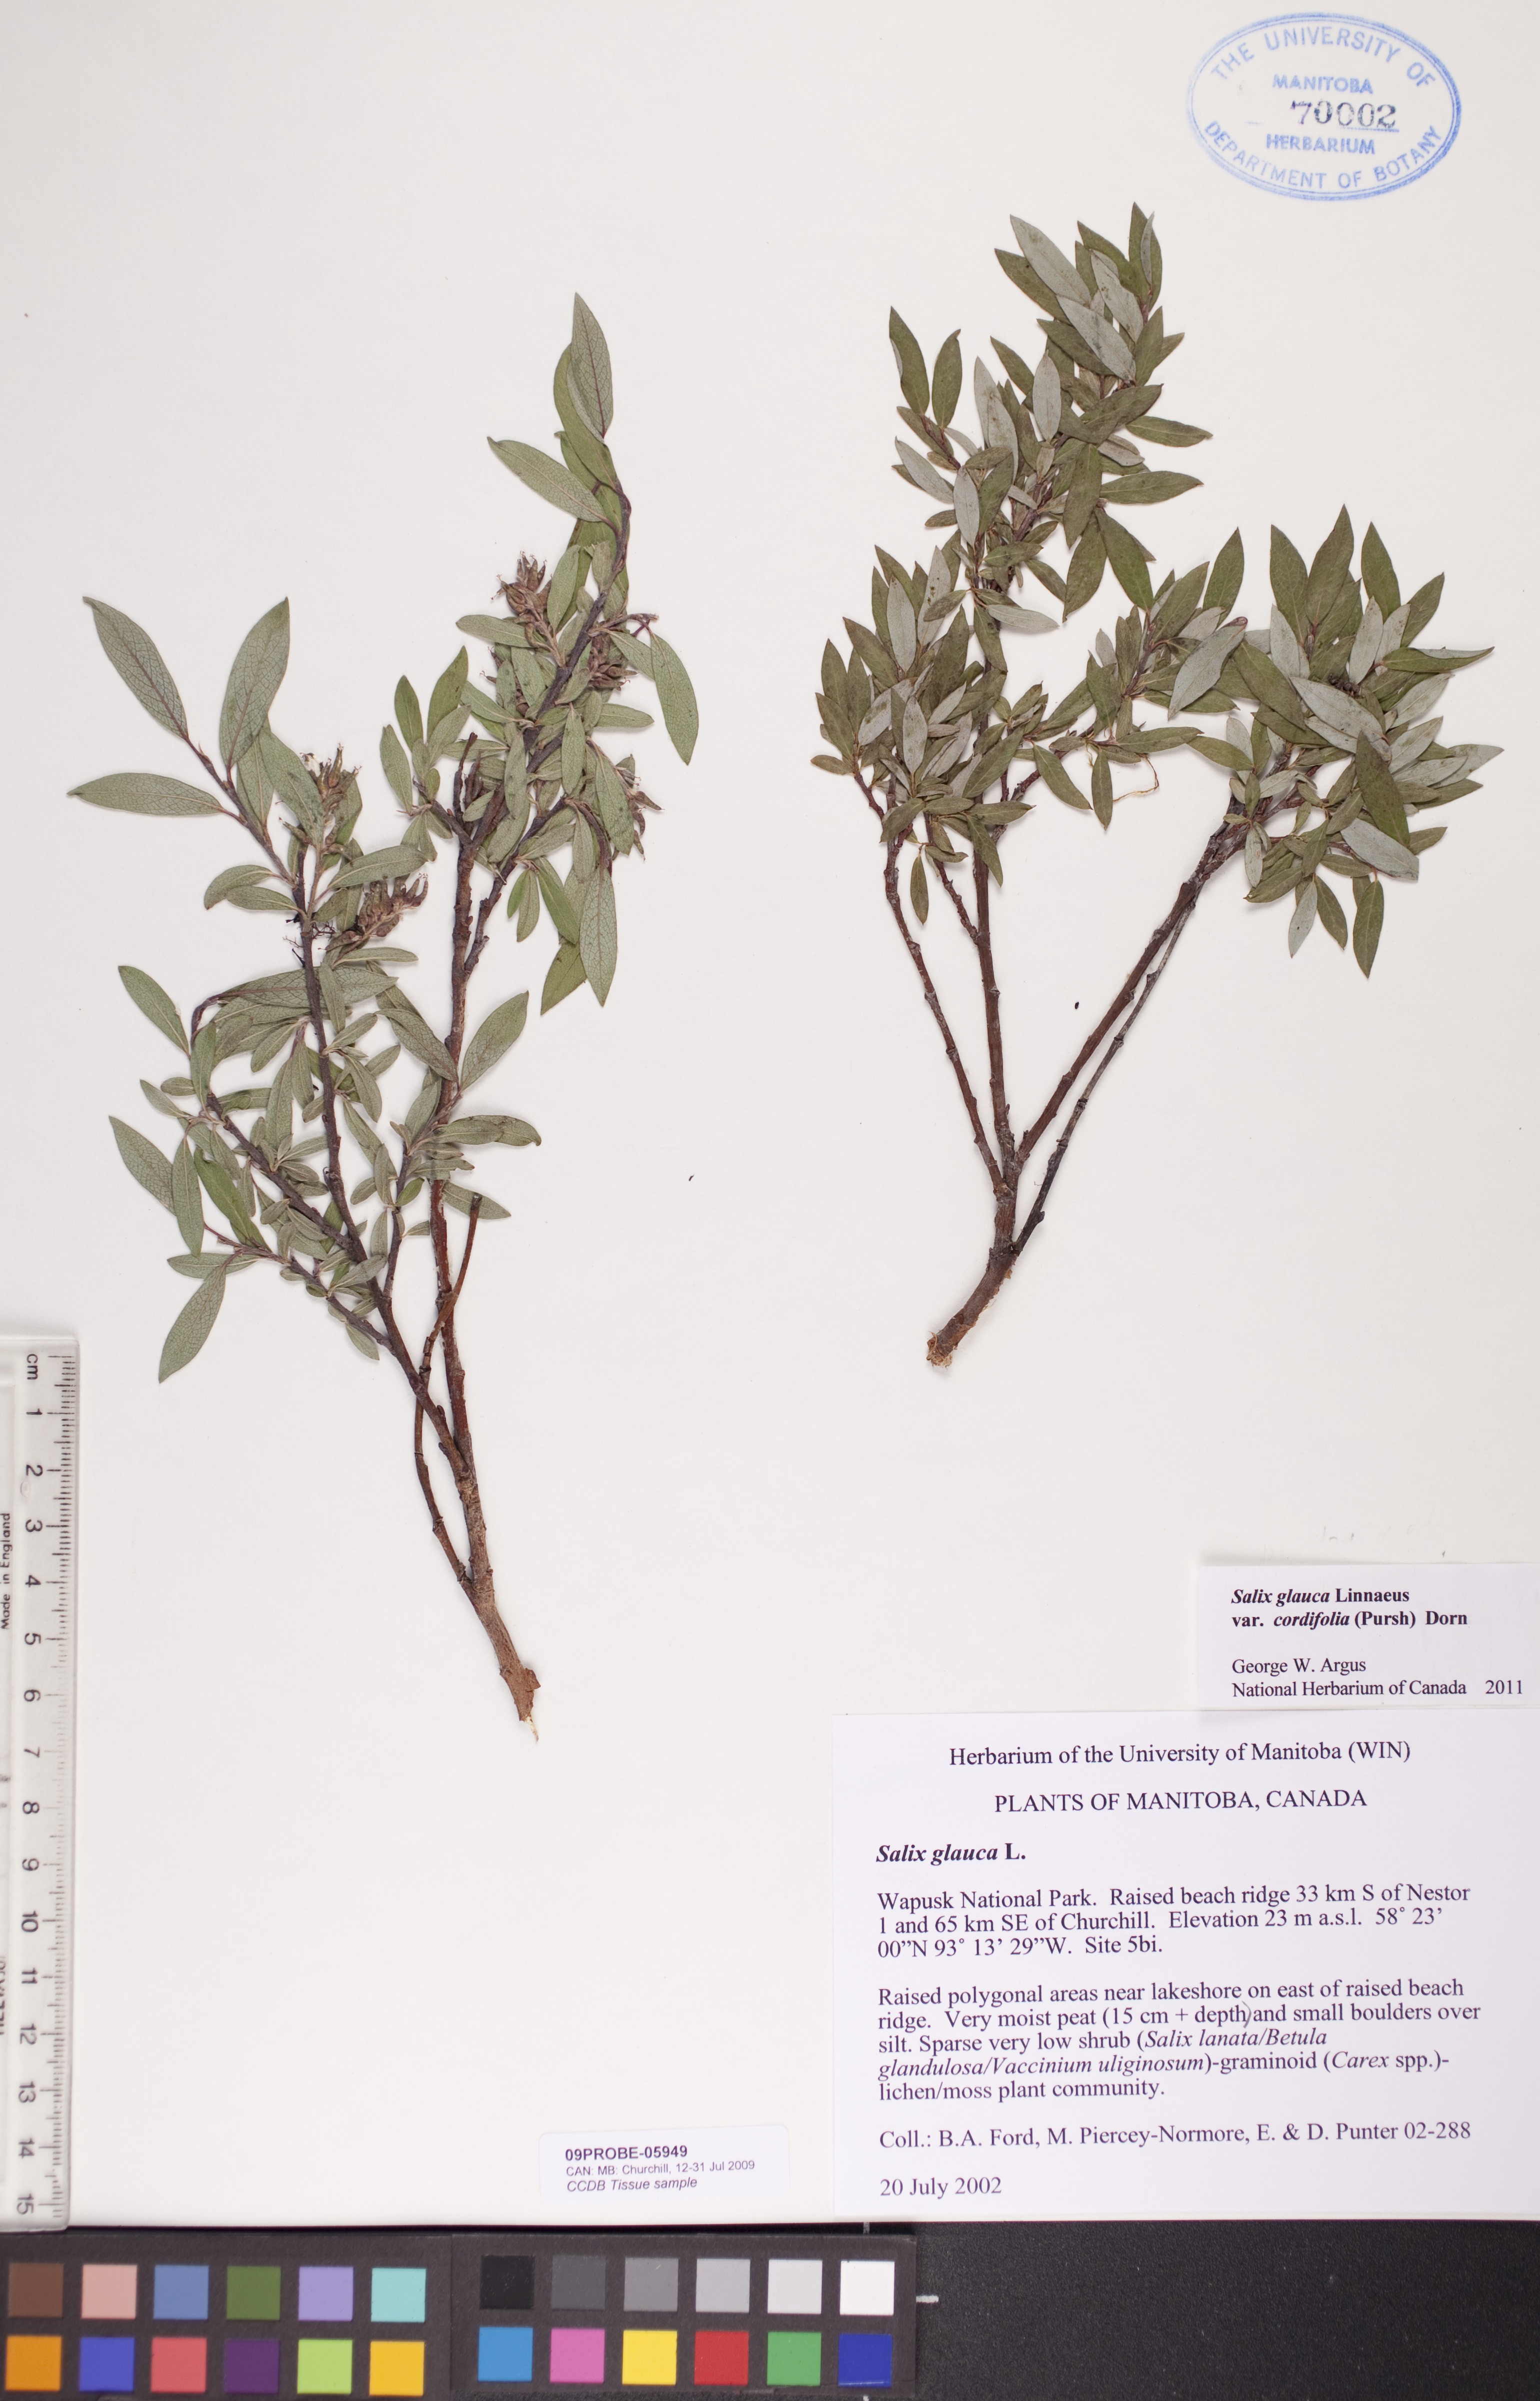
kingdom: Plantae
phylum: Tracheophyta
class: Magnoliopsida
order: Malpighiales
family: Salicaceae
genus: Salix
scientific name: Salix glauca
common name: Glaucous willow
